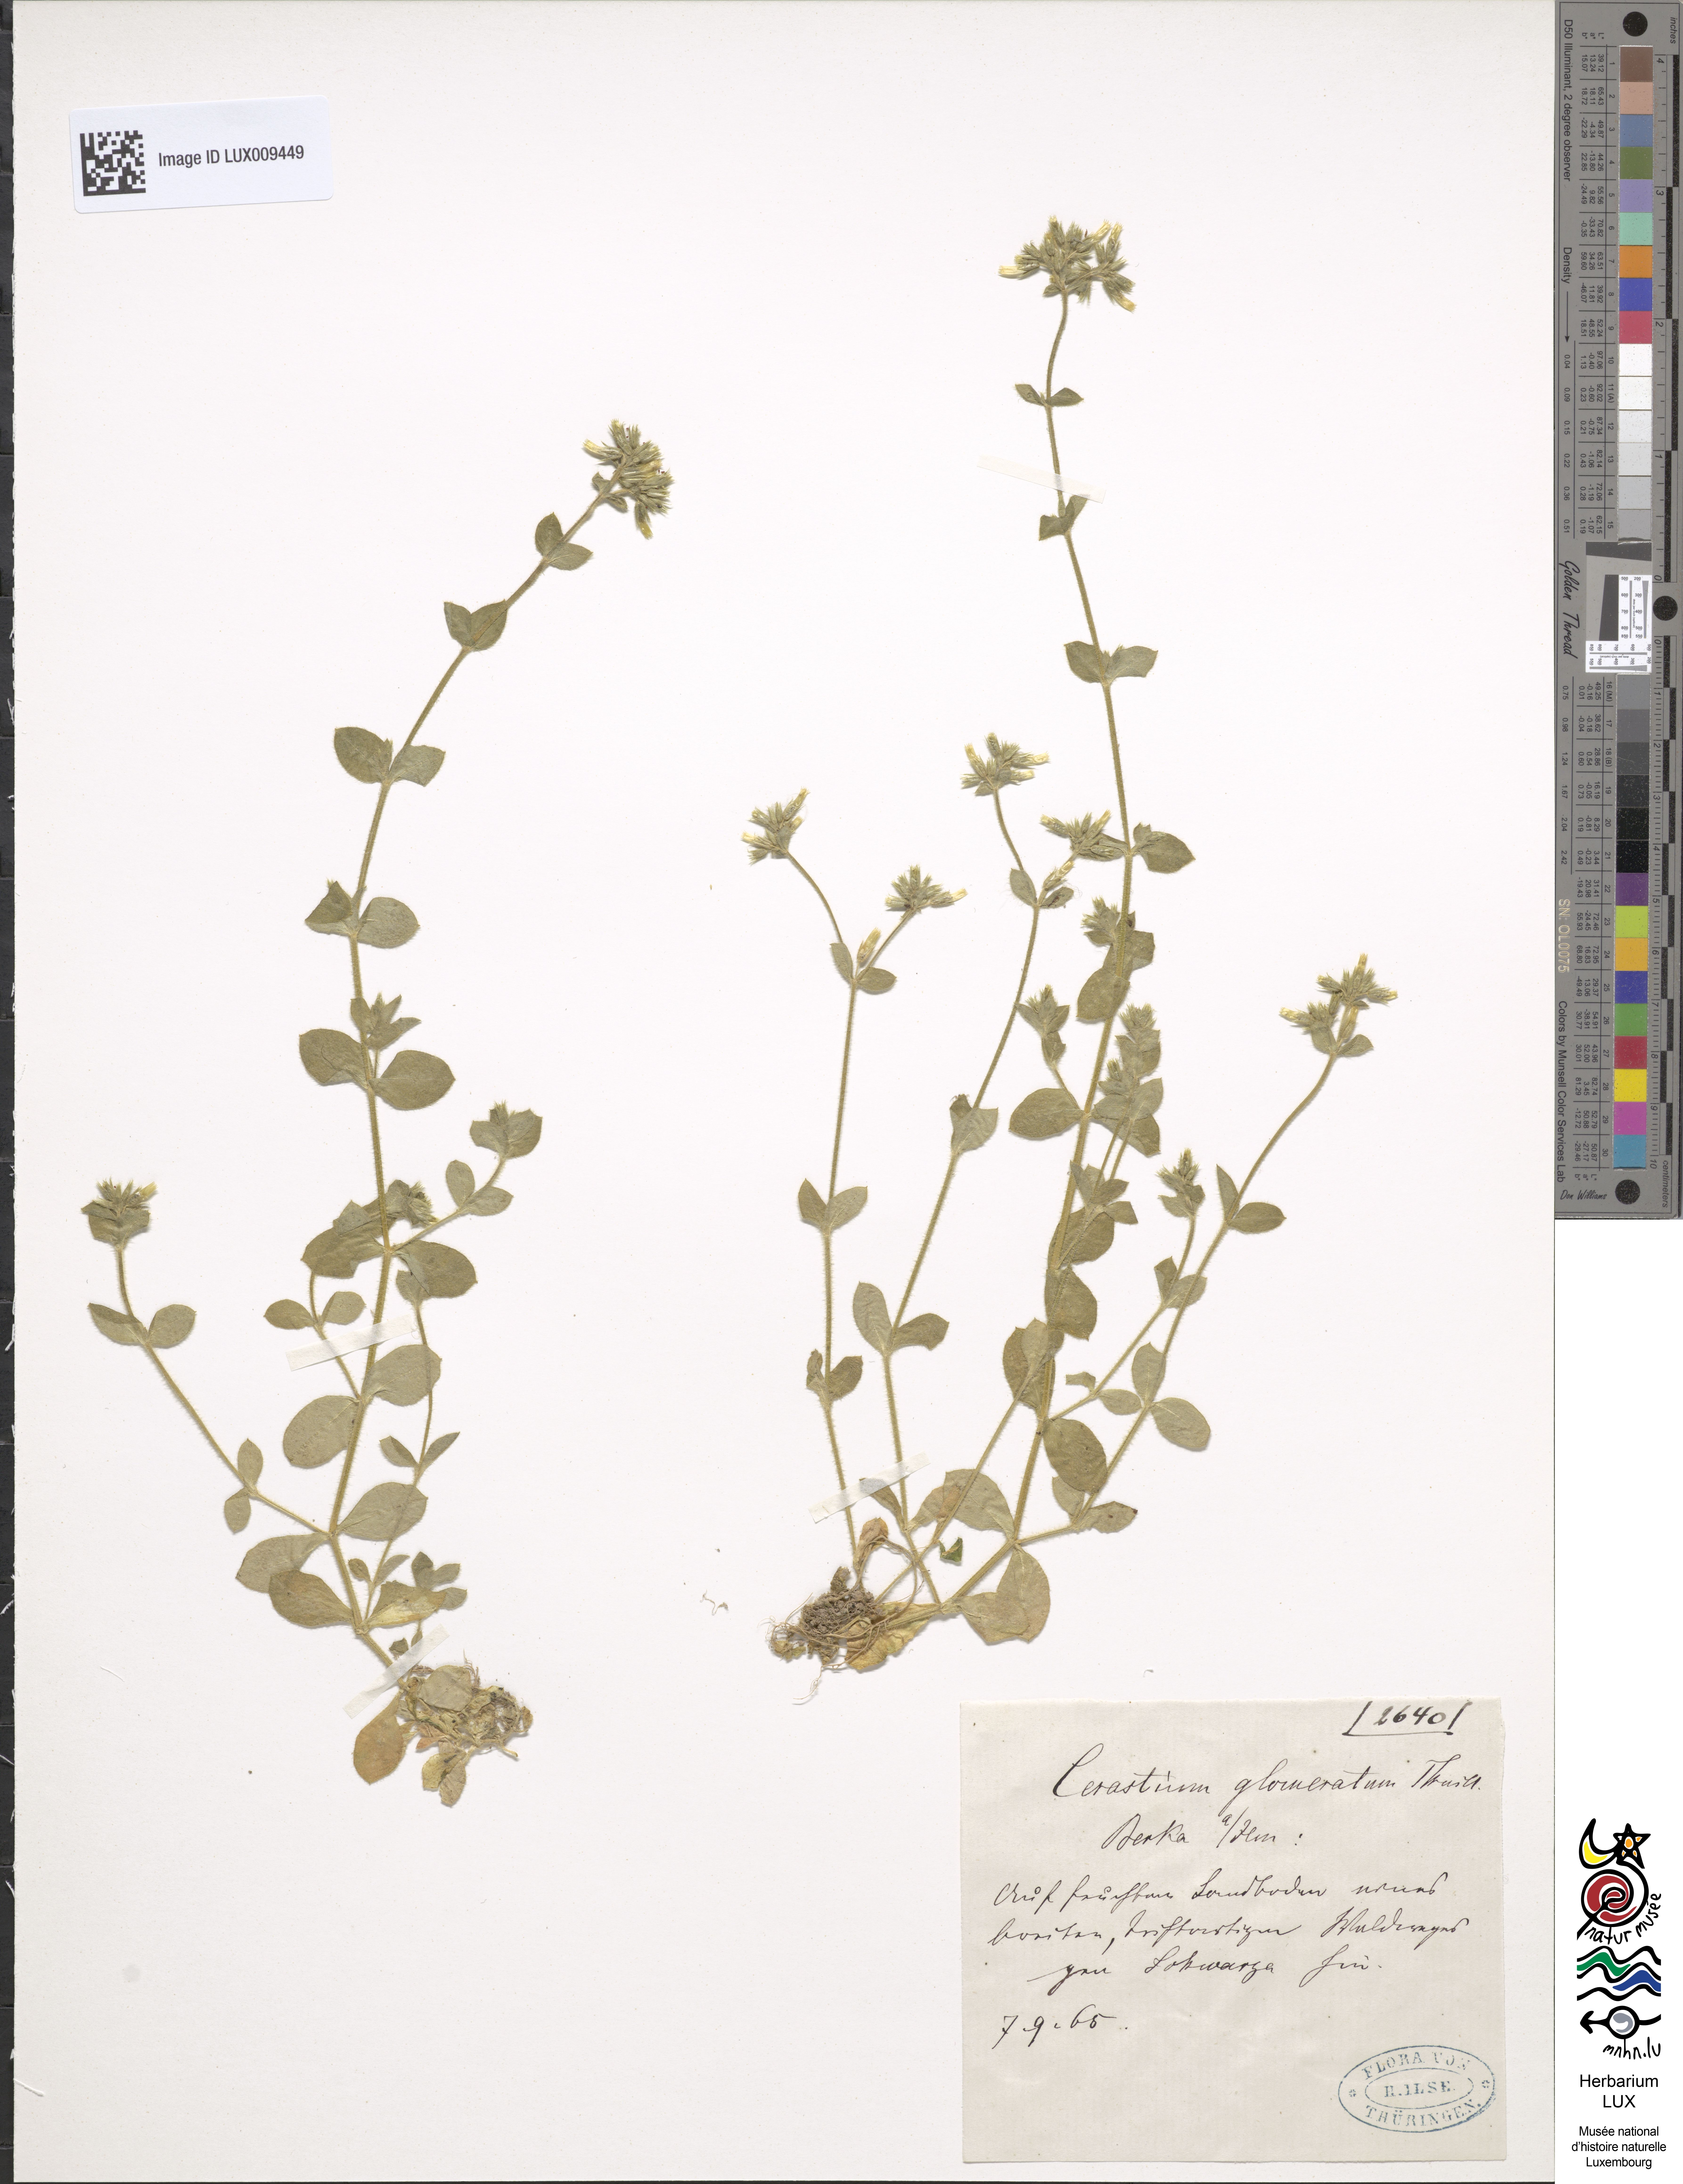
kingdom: Plantae
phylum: Tracheophyta
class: Magnoliopsida
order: Caryophyllales
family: Caryophyllaceae
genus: Cerastium
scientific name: Cerastium glomeratum
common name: Sticky chickweed
